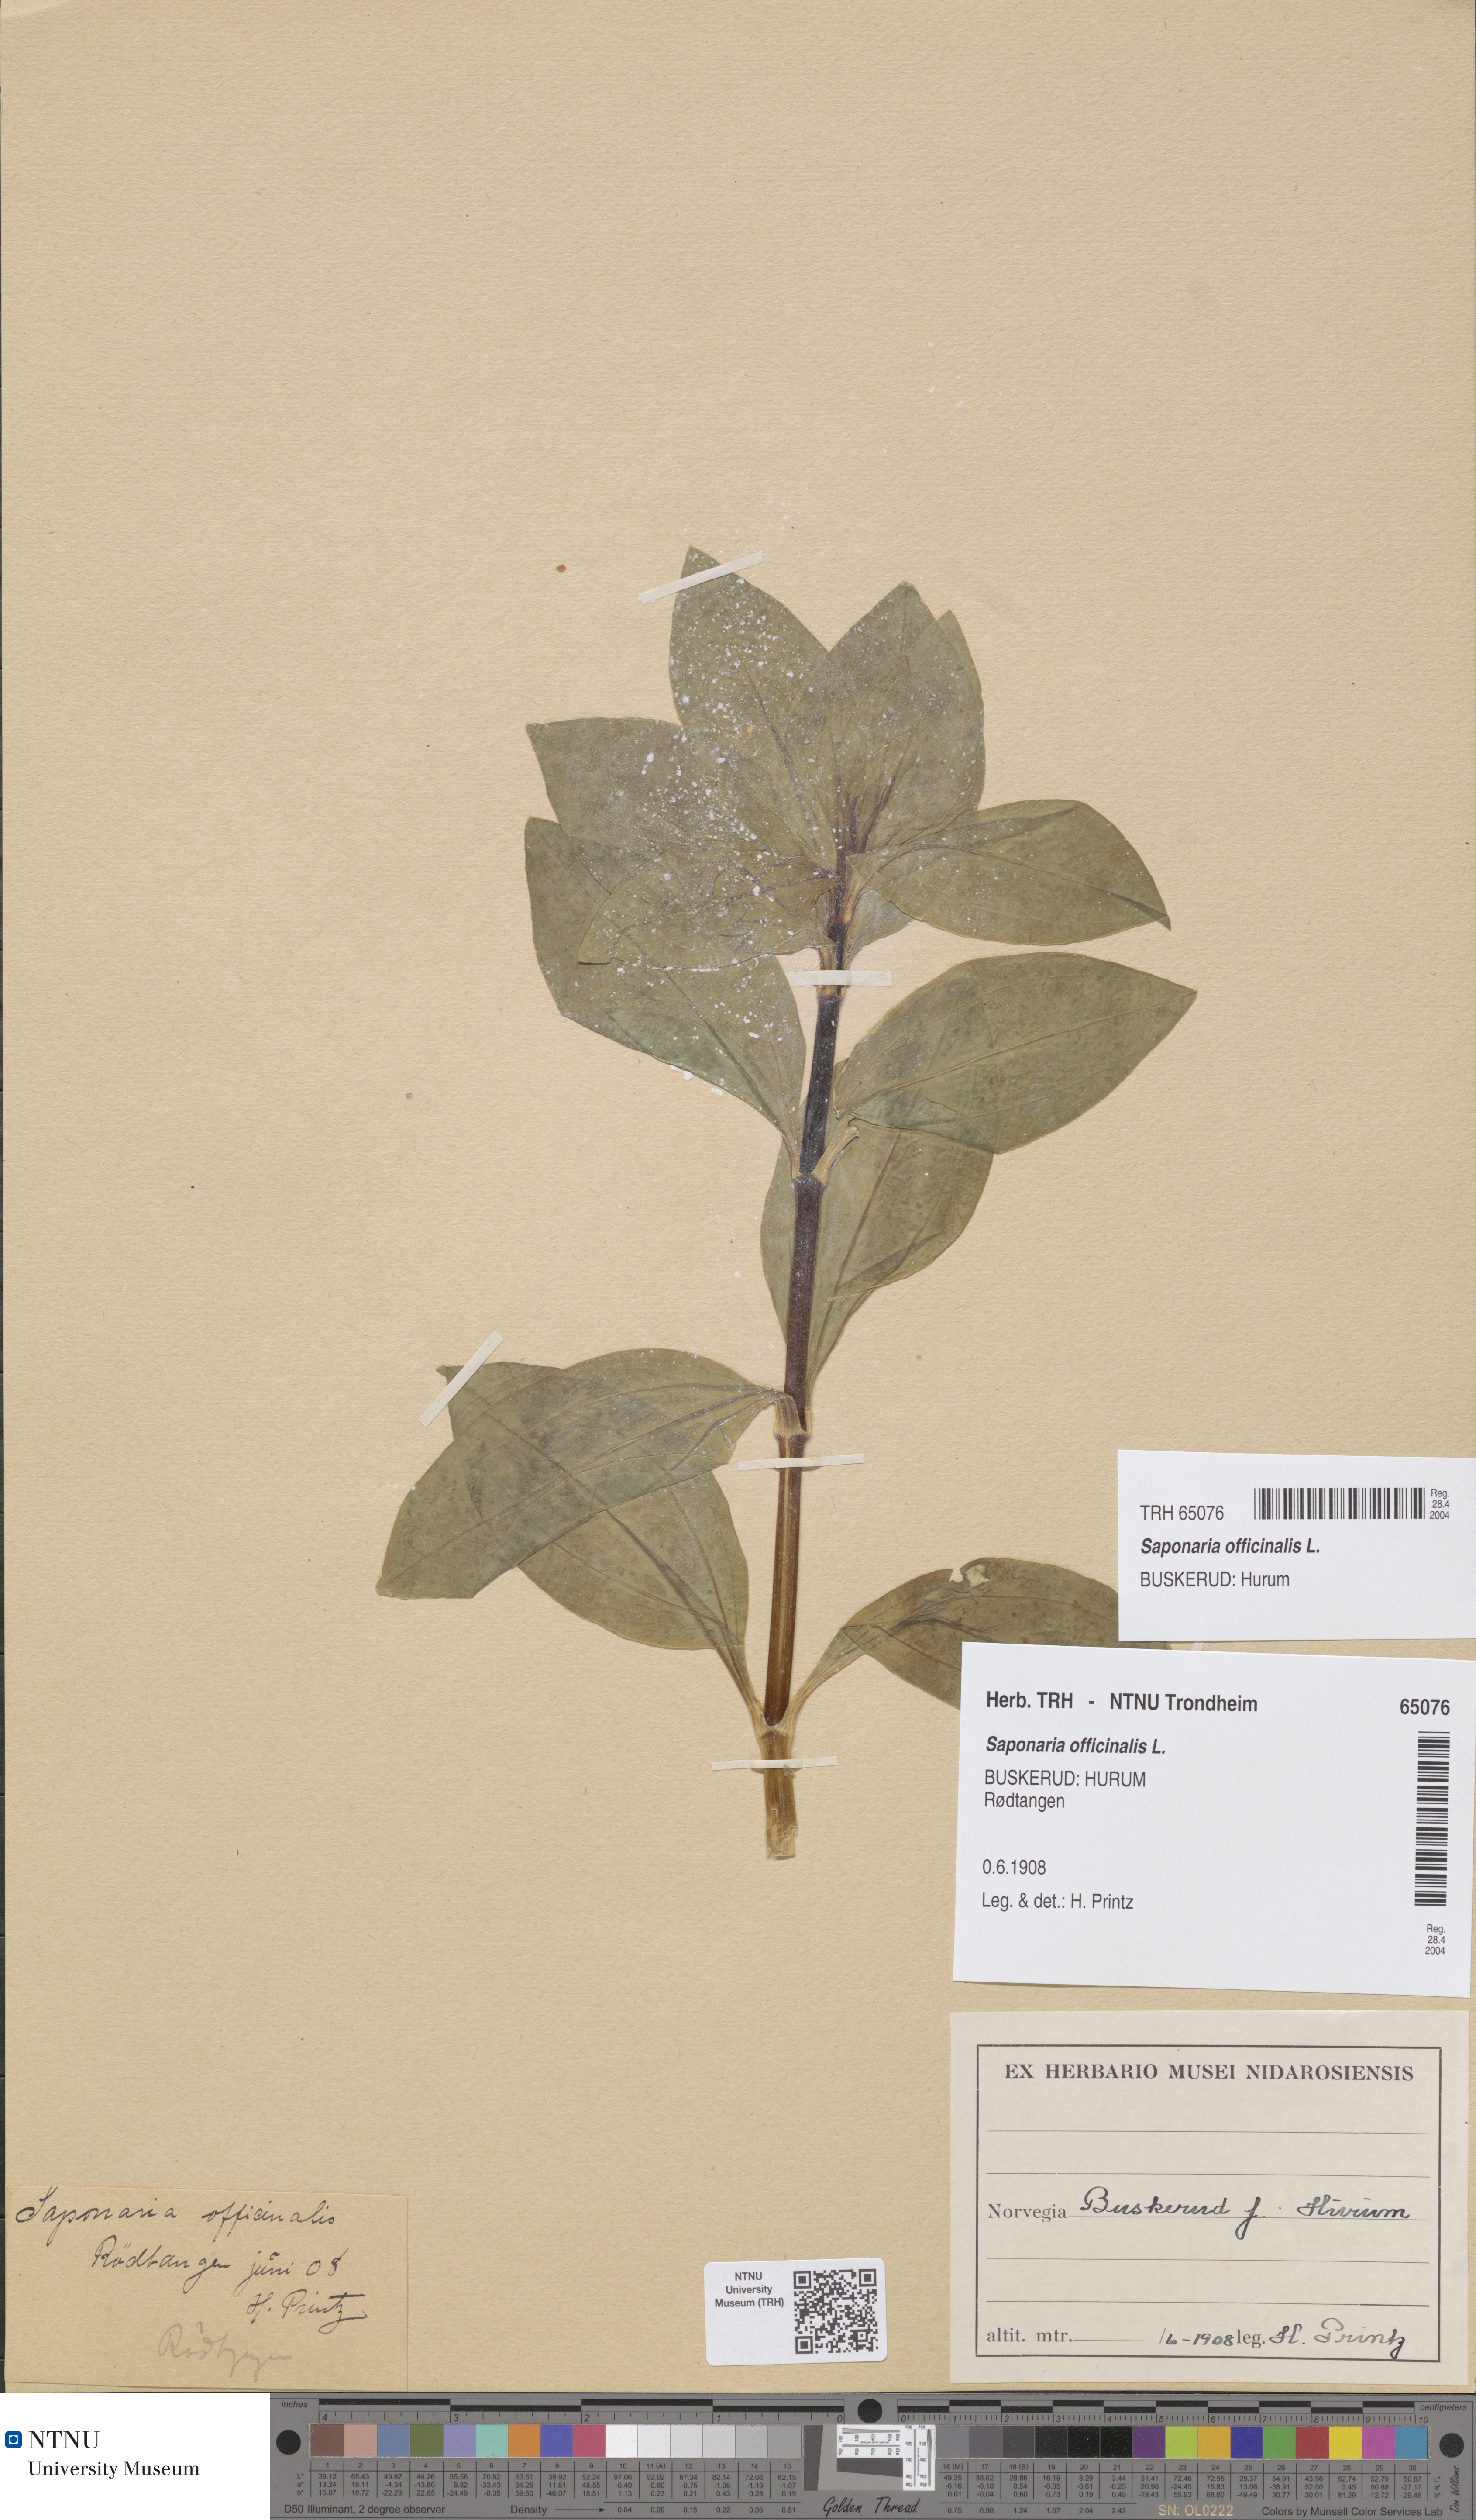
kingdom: Plantae
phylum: Tracheophyta
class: Magnoliopsida
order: Caryophyllales
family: Caryophyllaceae
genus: Saponaria
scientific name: Saponaria officinalis
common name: Soapwort
